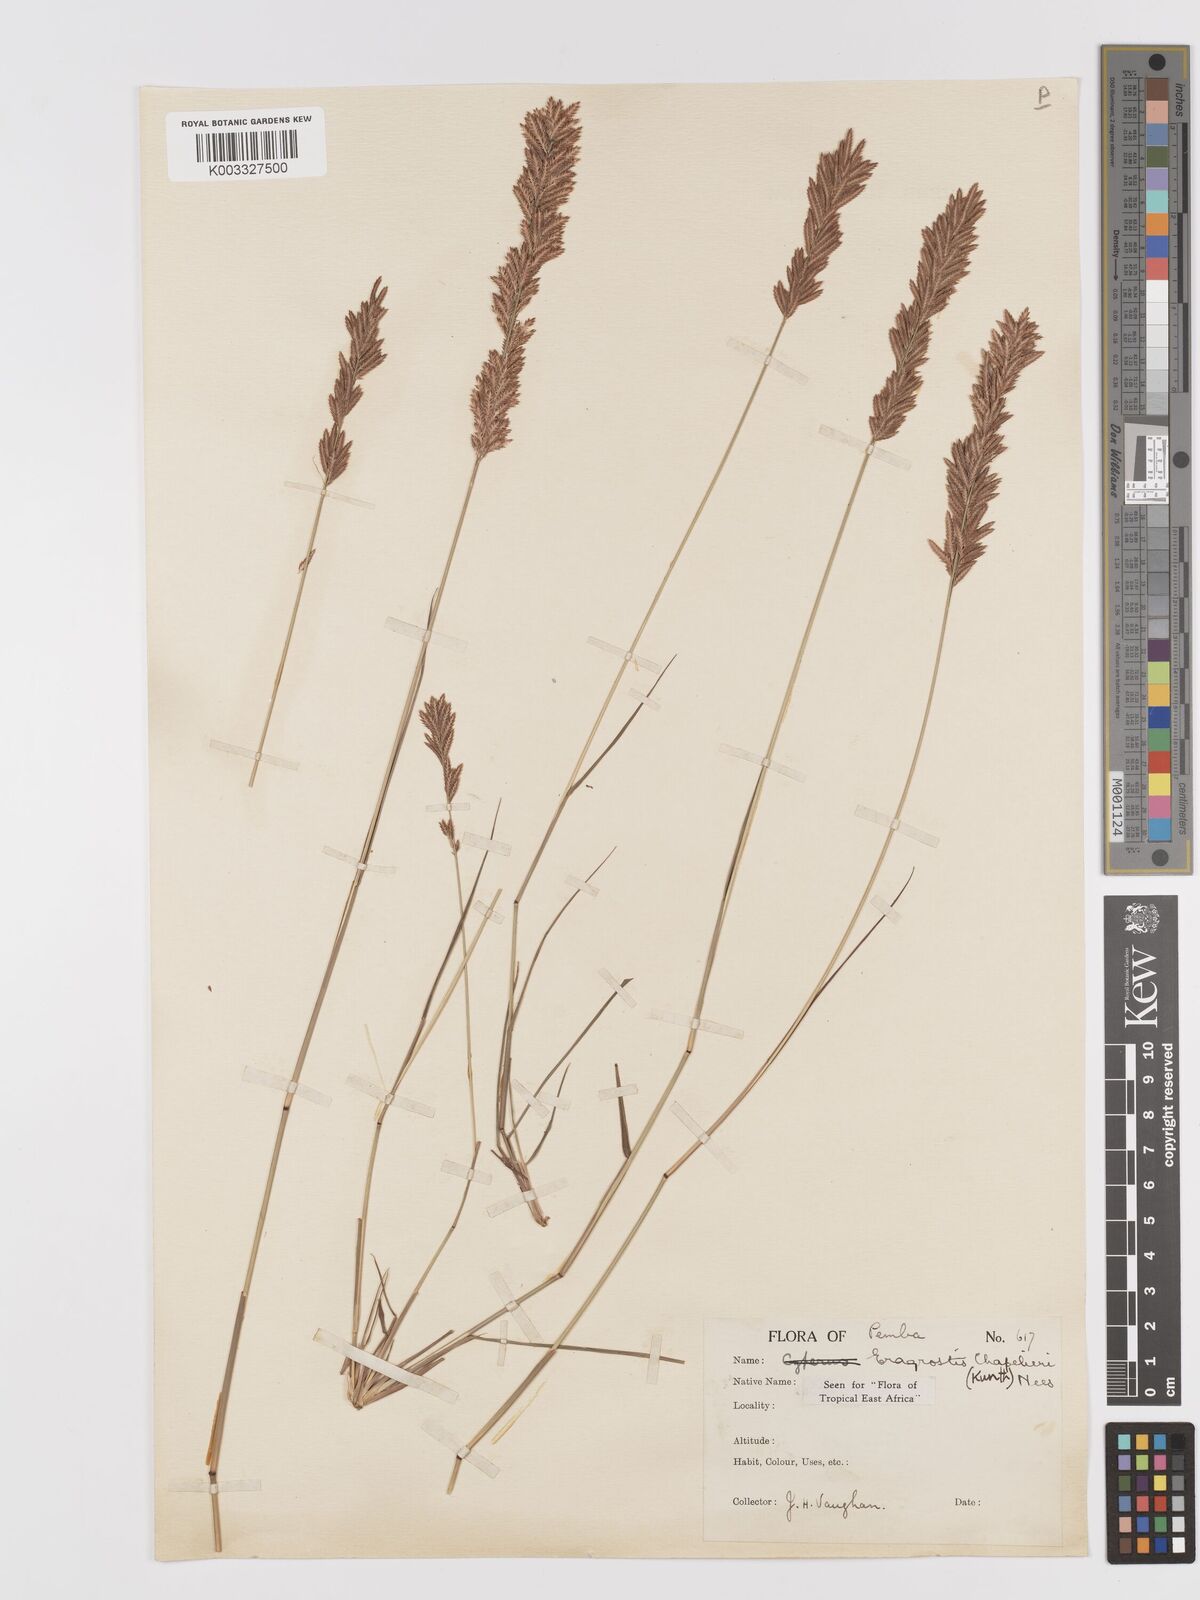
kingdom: Plantae
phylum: Tracheophyta
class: Liliopsida
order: Poales
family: Poaceae
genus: Eragrostis
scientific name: Eragrostis chapelieri
